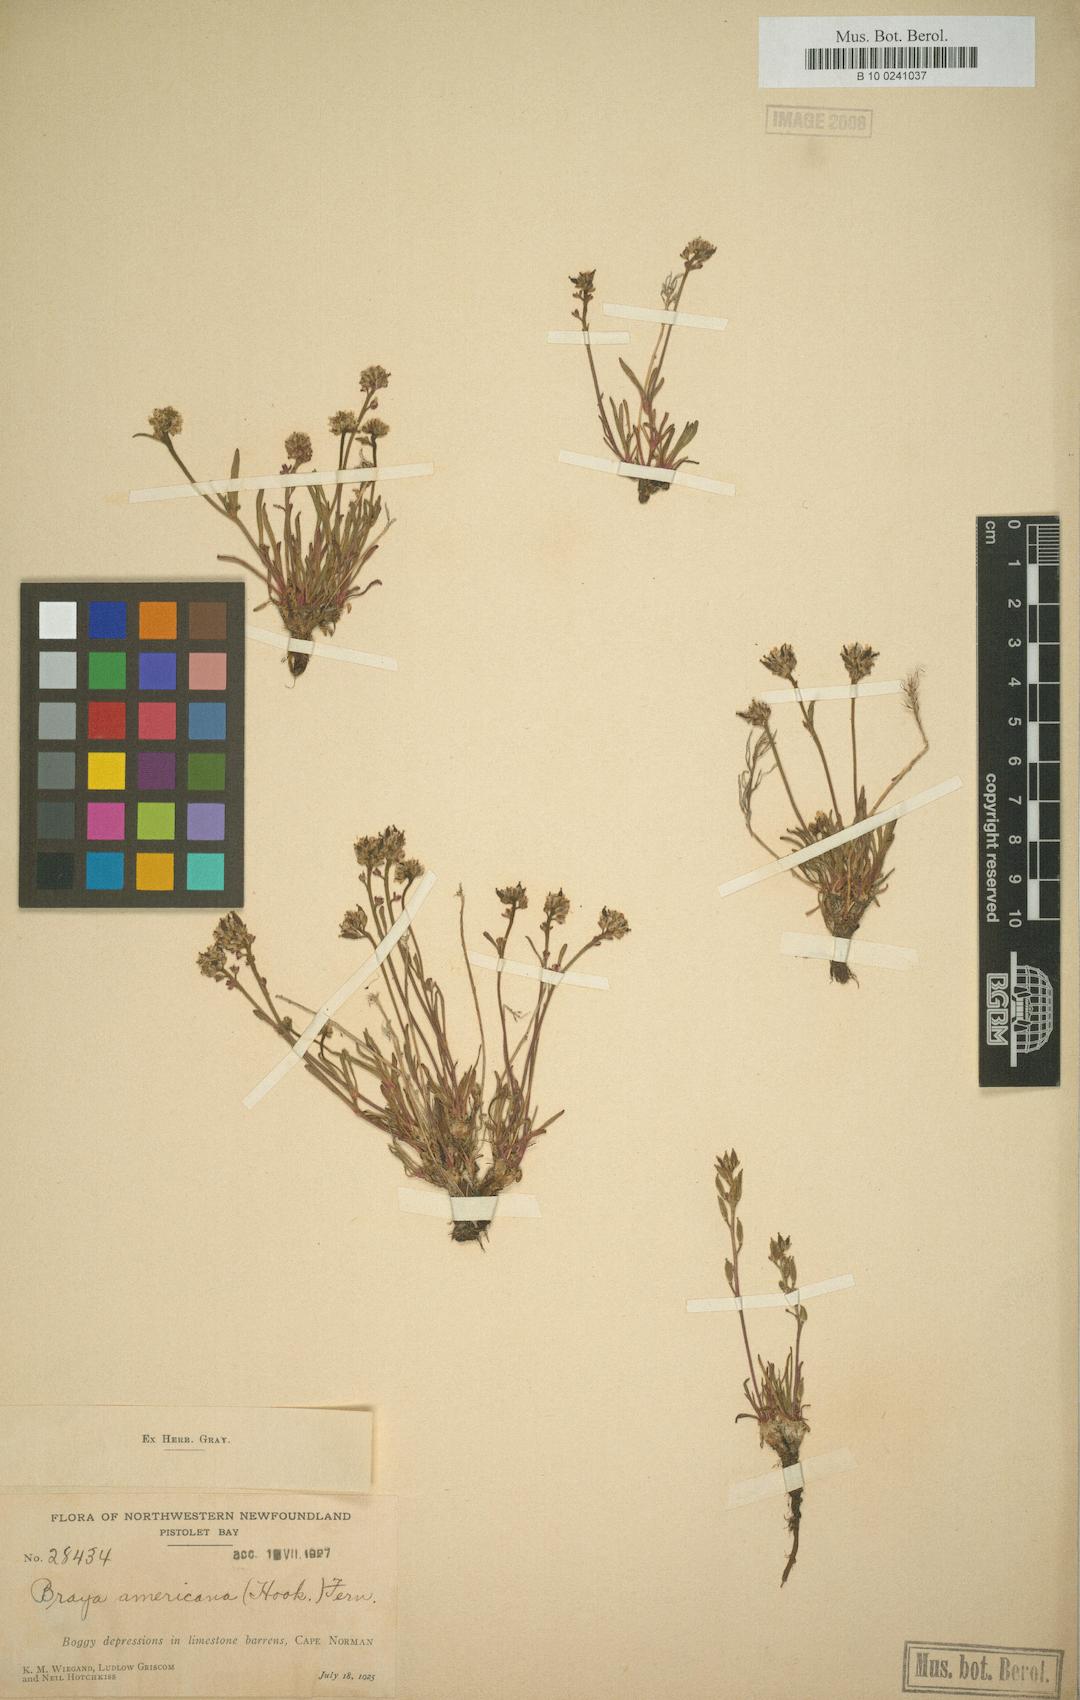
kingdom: Plantae
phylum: Tracheophyta
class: Magnoliopsida
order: Brassicales
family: Brassicaceae
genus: Braya
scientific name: Braya glabella
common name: Smooth braya
